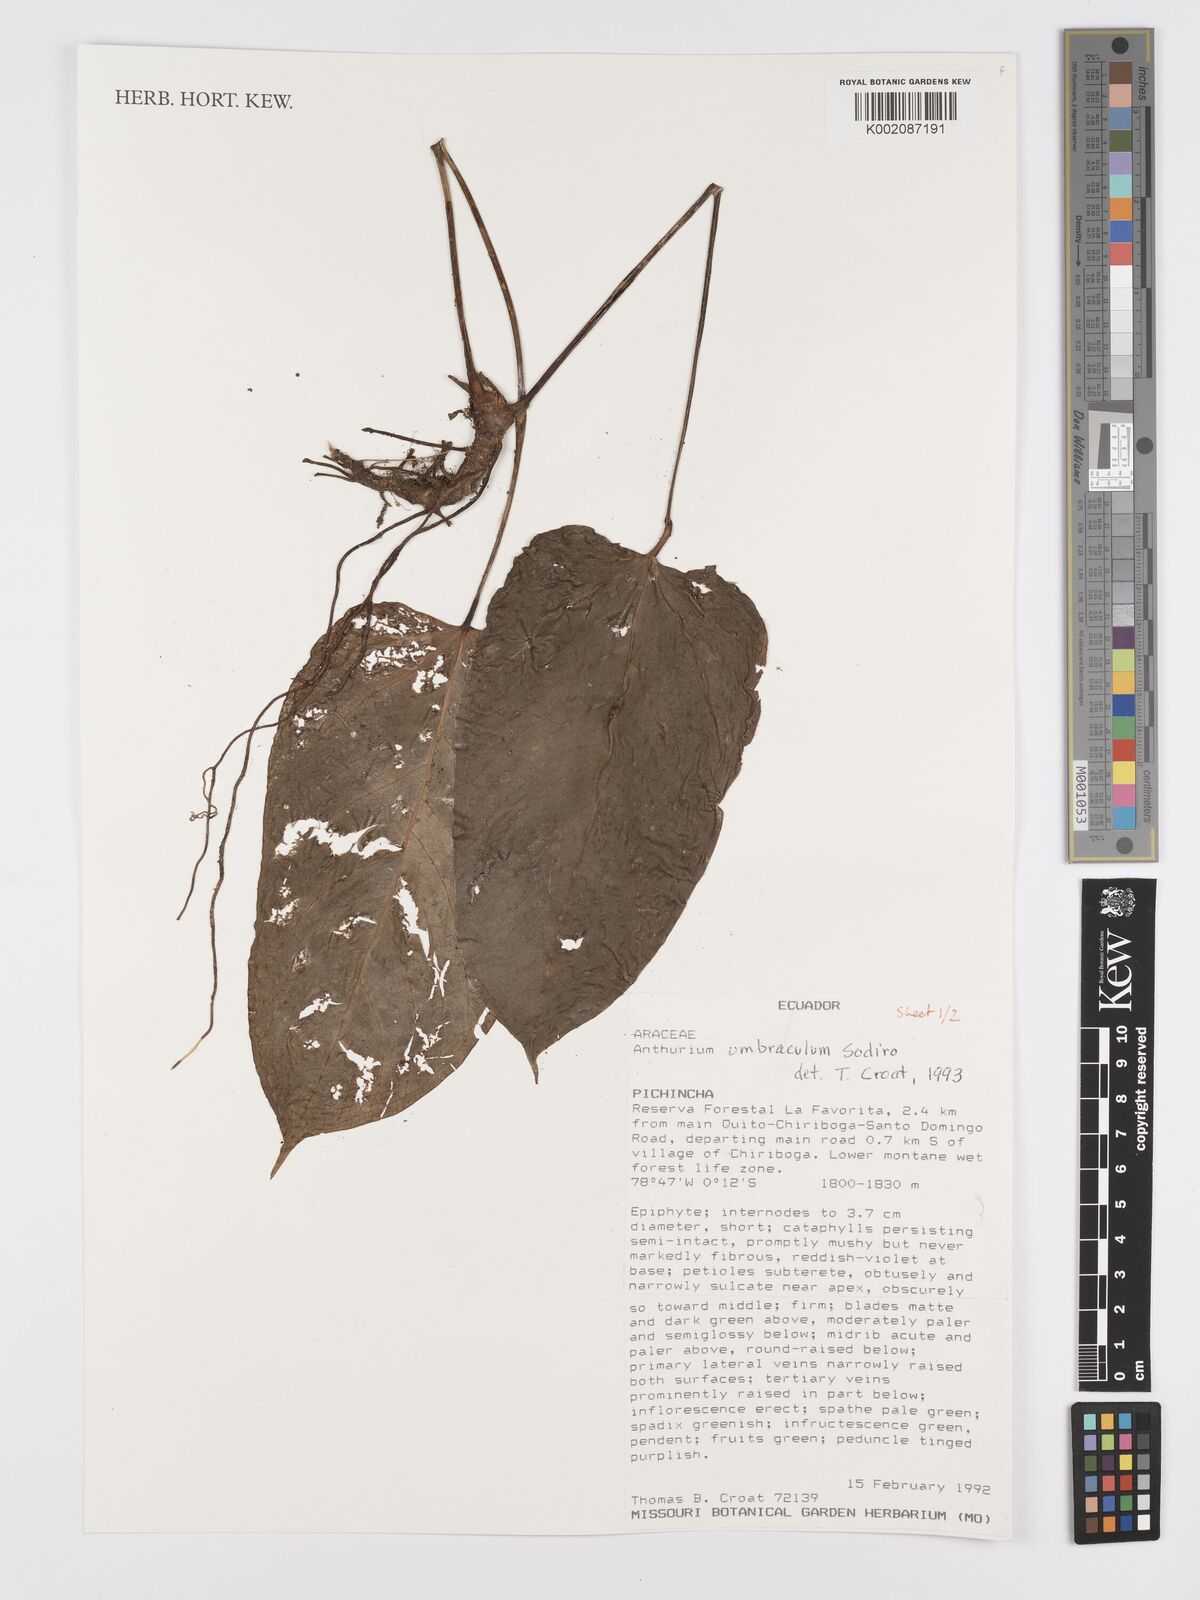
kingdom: Plantae
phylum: Tracheophyta
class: Liliopsida
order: Alismatales
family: Araceae
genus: Anthurium
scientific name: Anthurium umbraculum
